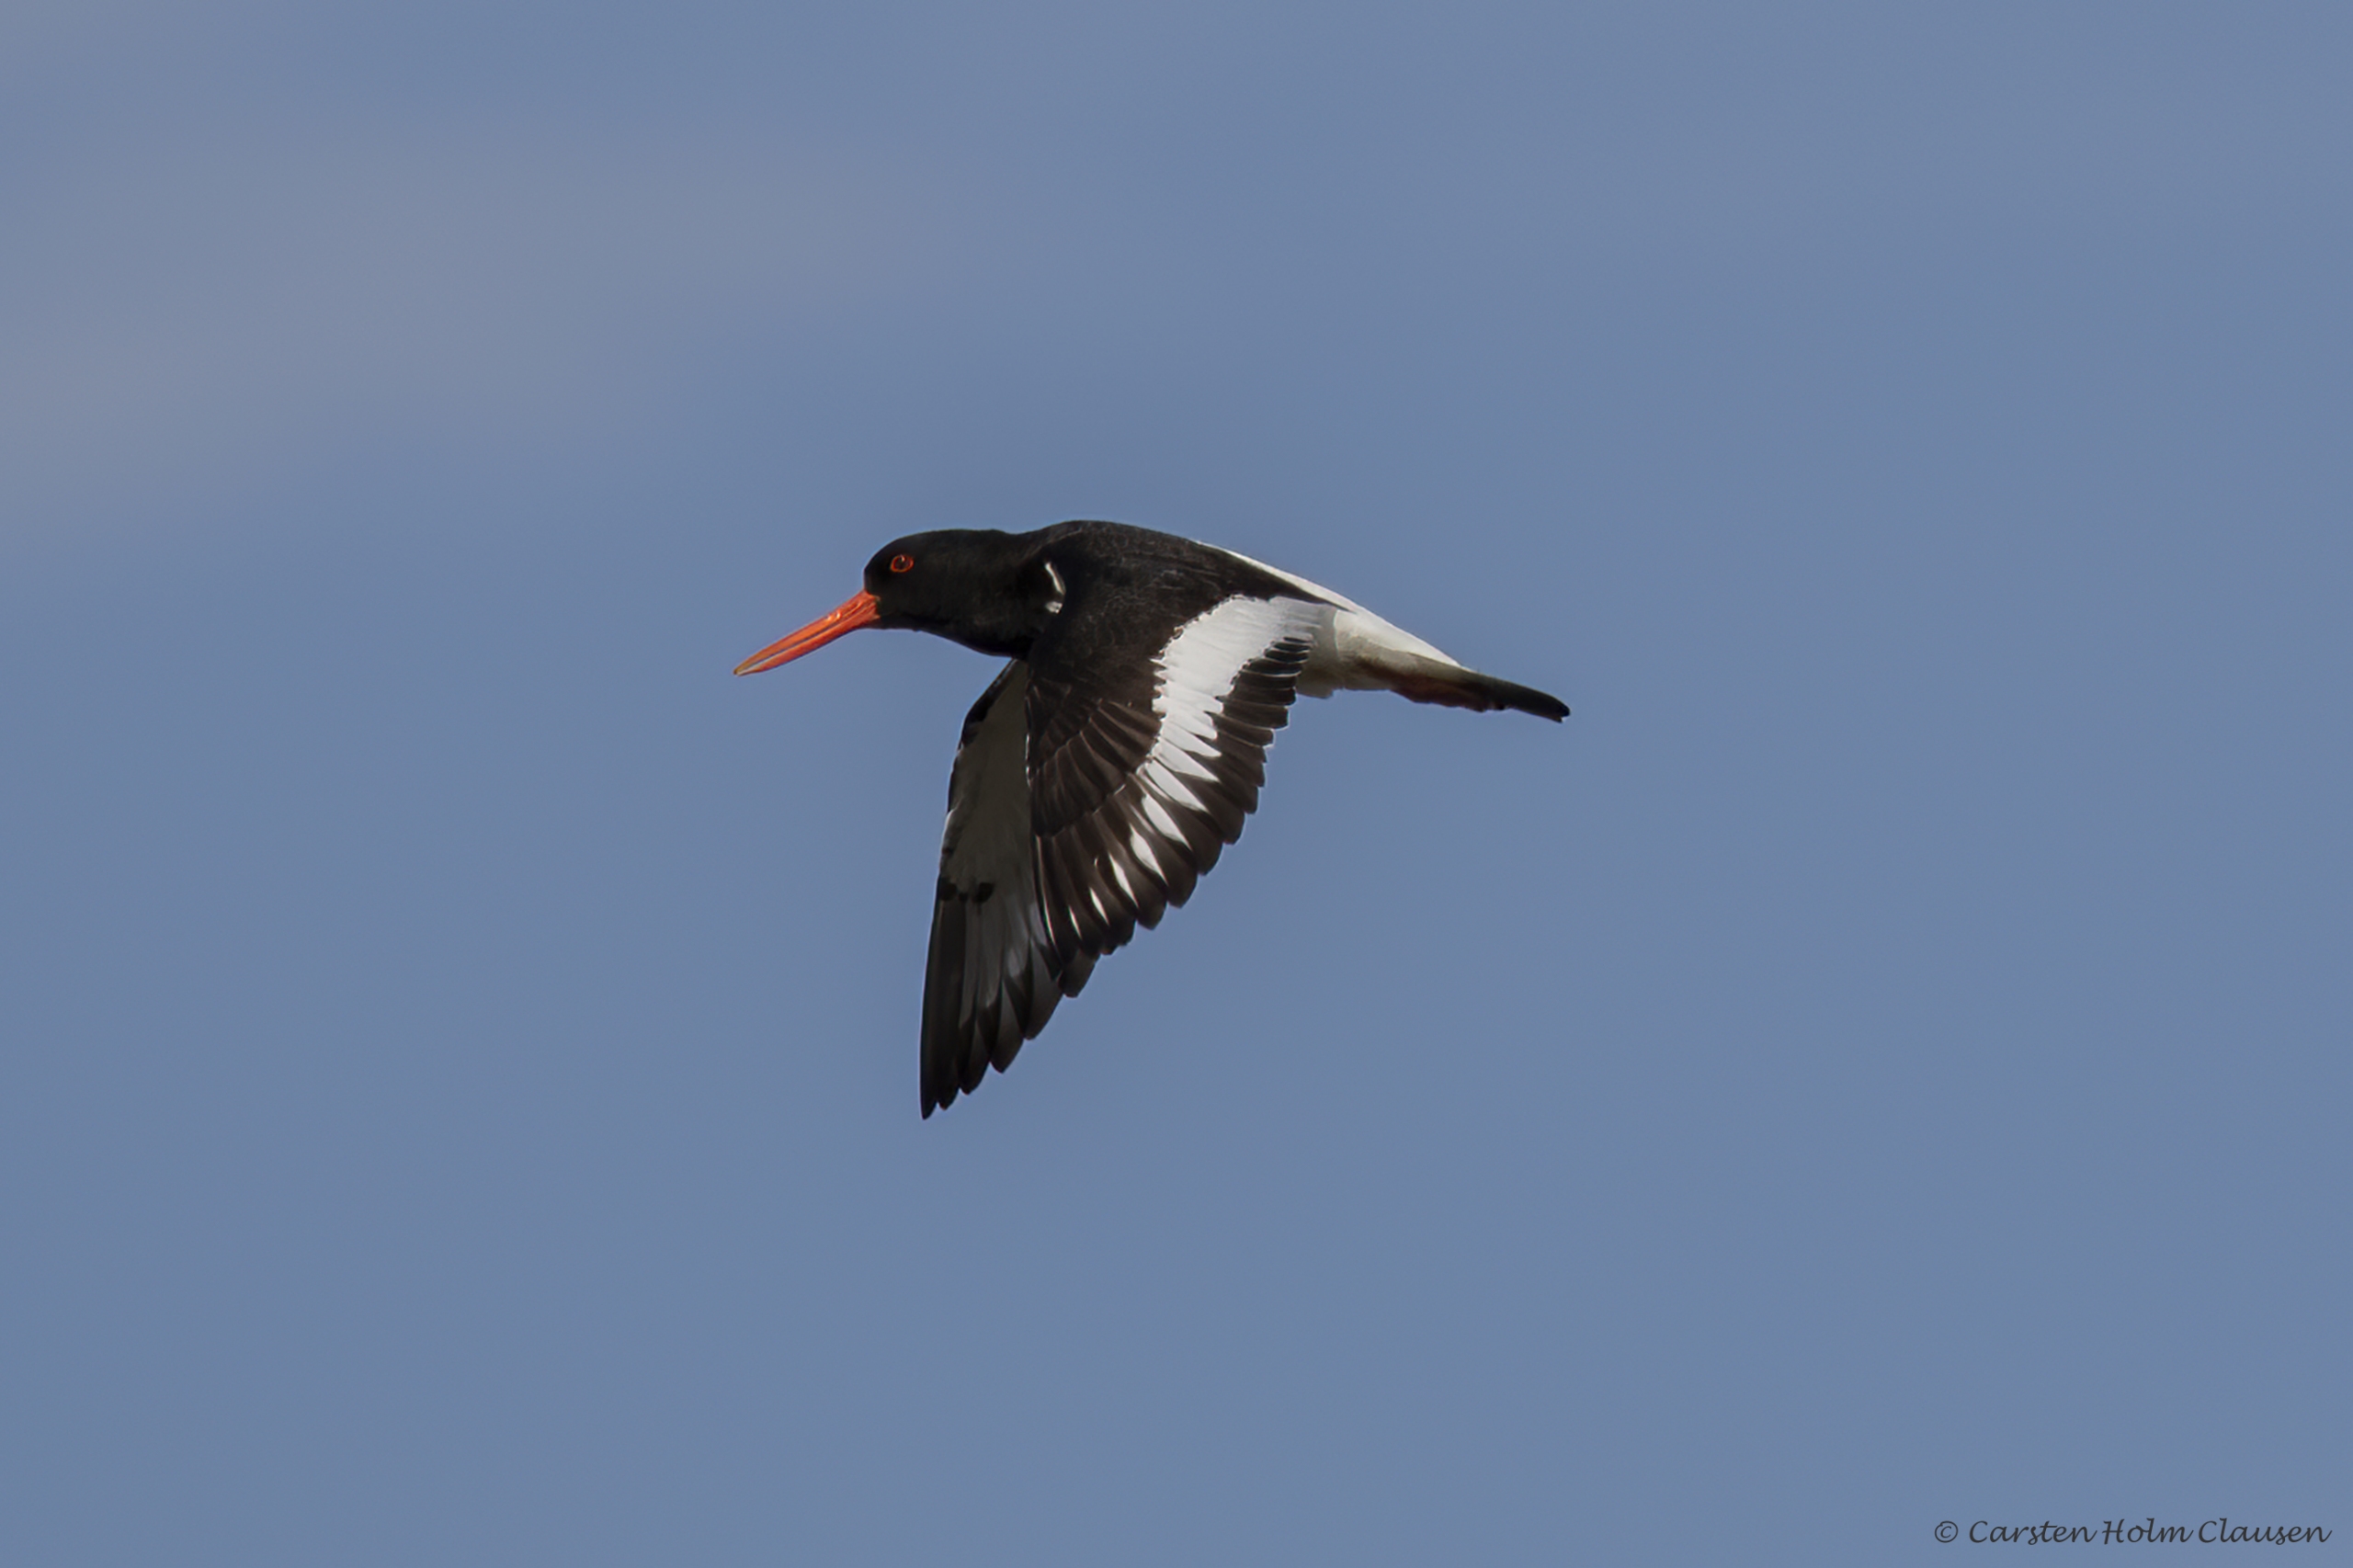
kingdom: Animalia
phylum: Chordata
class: Aves
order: Charadriiformes
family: Haematopodidae
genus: Haematopus
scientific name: Haematopus ostralegus
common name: Strandskade
